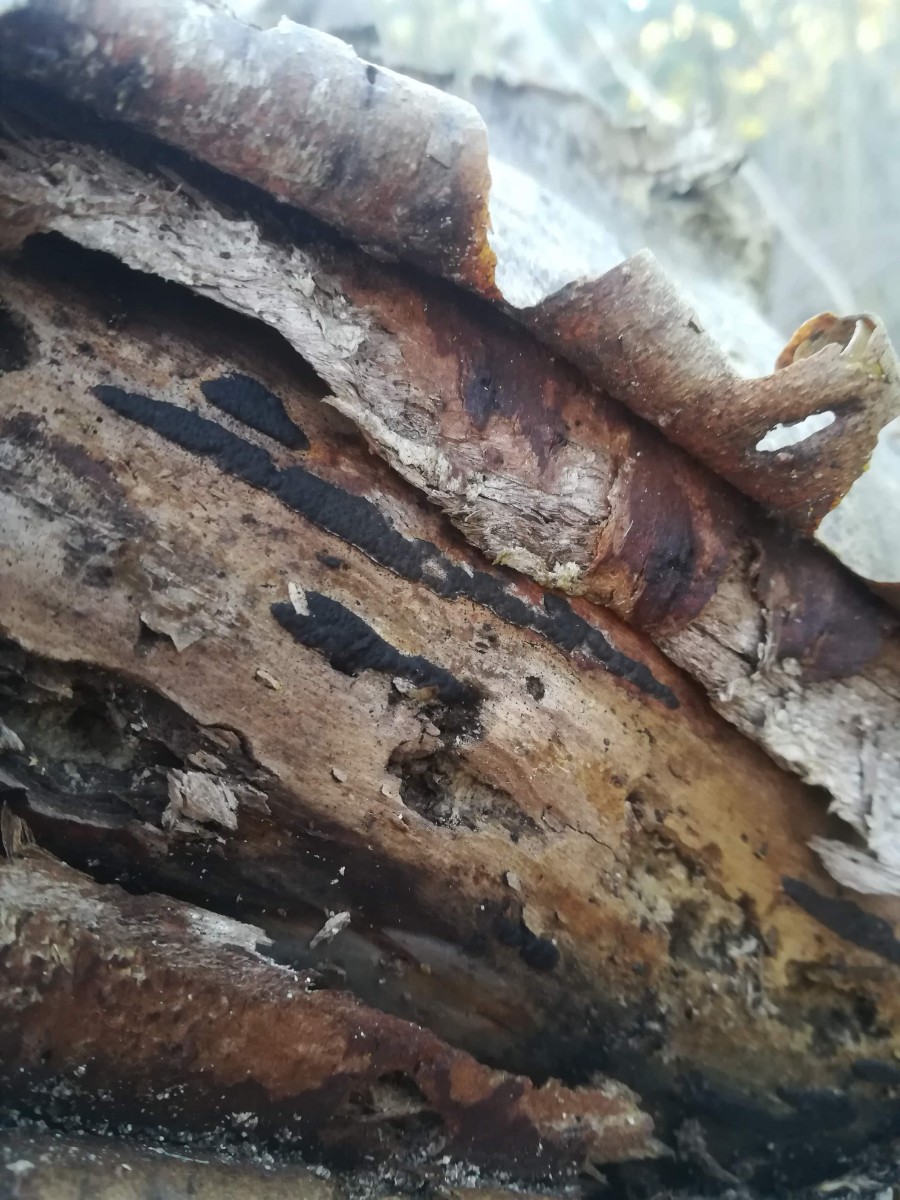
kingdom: Fungi
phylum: Ascomycota
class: Sordariomycetes
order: Xylariales
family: Xylariaceae
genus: Nemania
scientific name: Nemania serpens
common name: almindelig kuldyne
